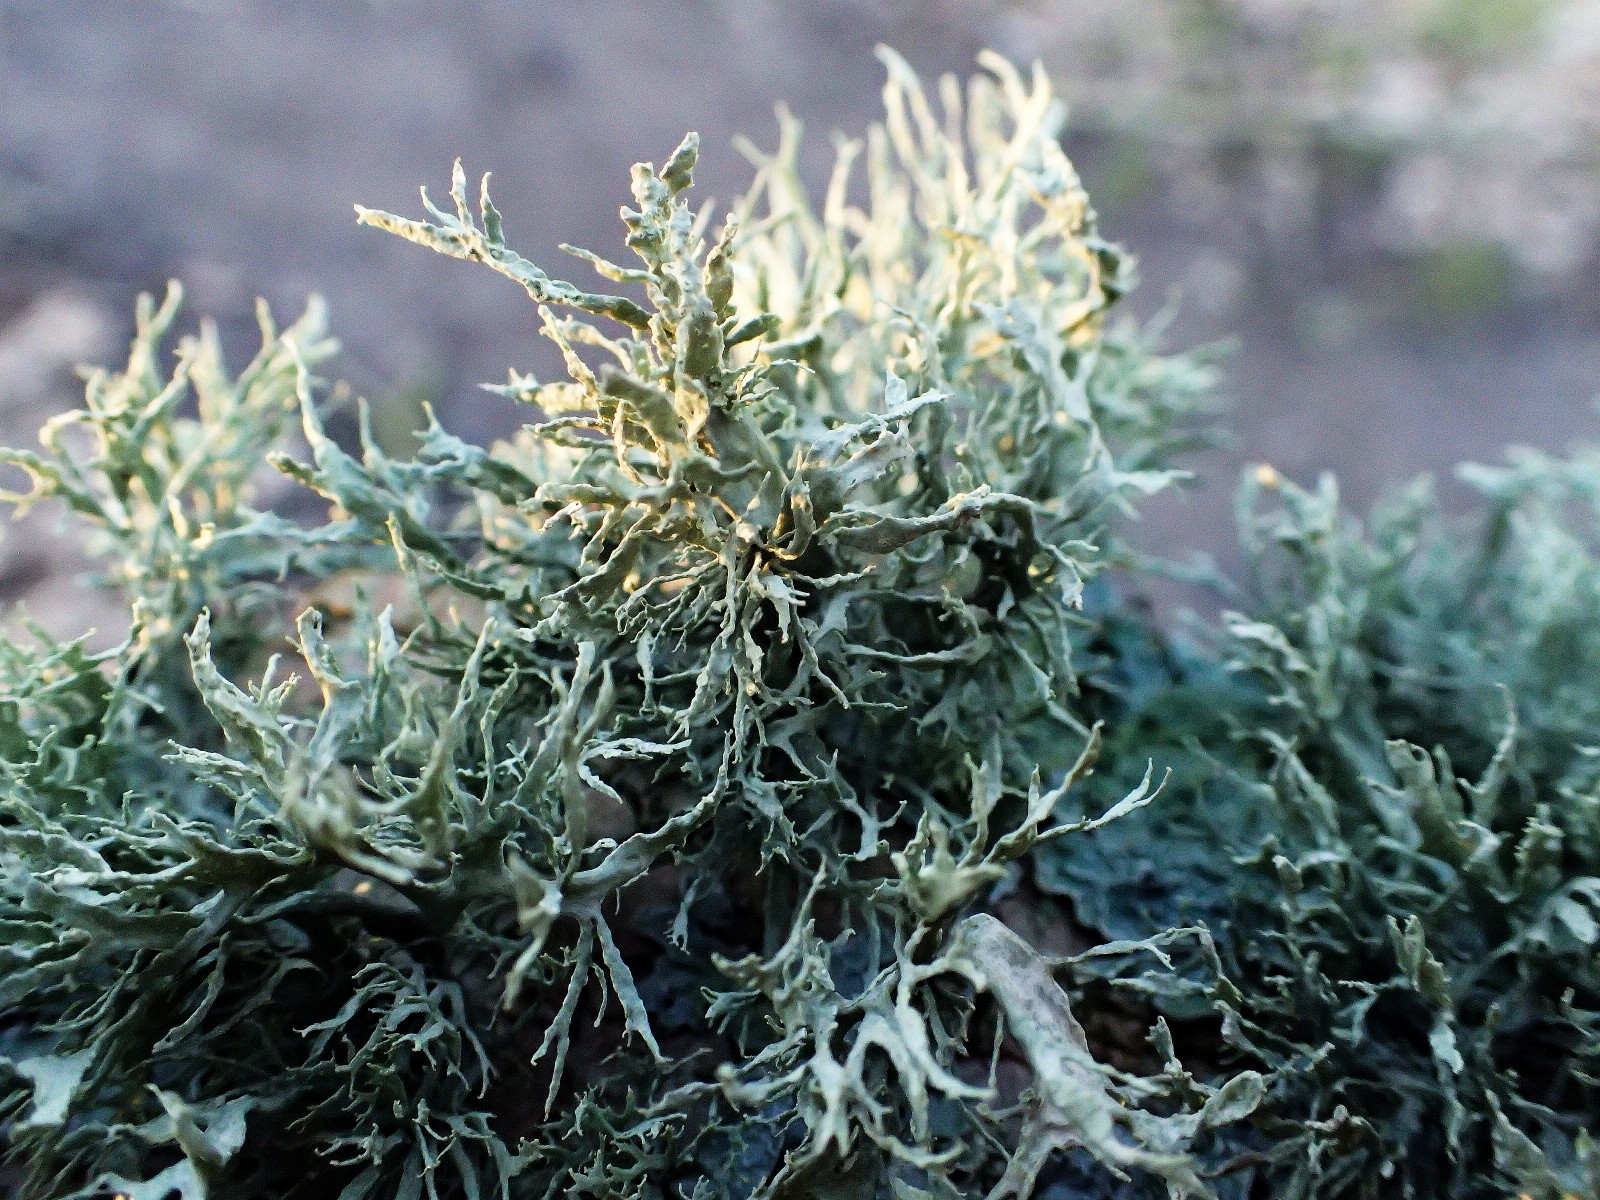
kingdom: Fungi
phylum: Ascomycota
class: Lecanoromycetes
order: Lecanorales
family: Ramalinaceae
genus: Ramalina
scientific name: Ramalina farinacea
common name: melet grenlav
